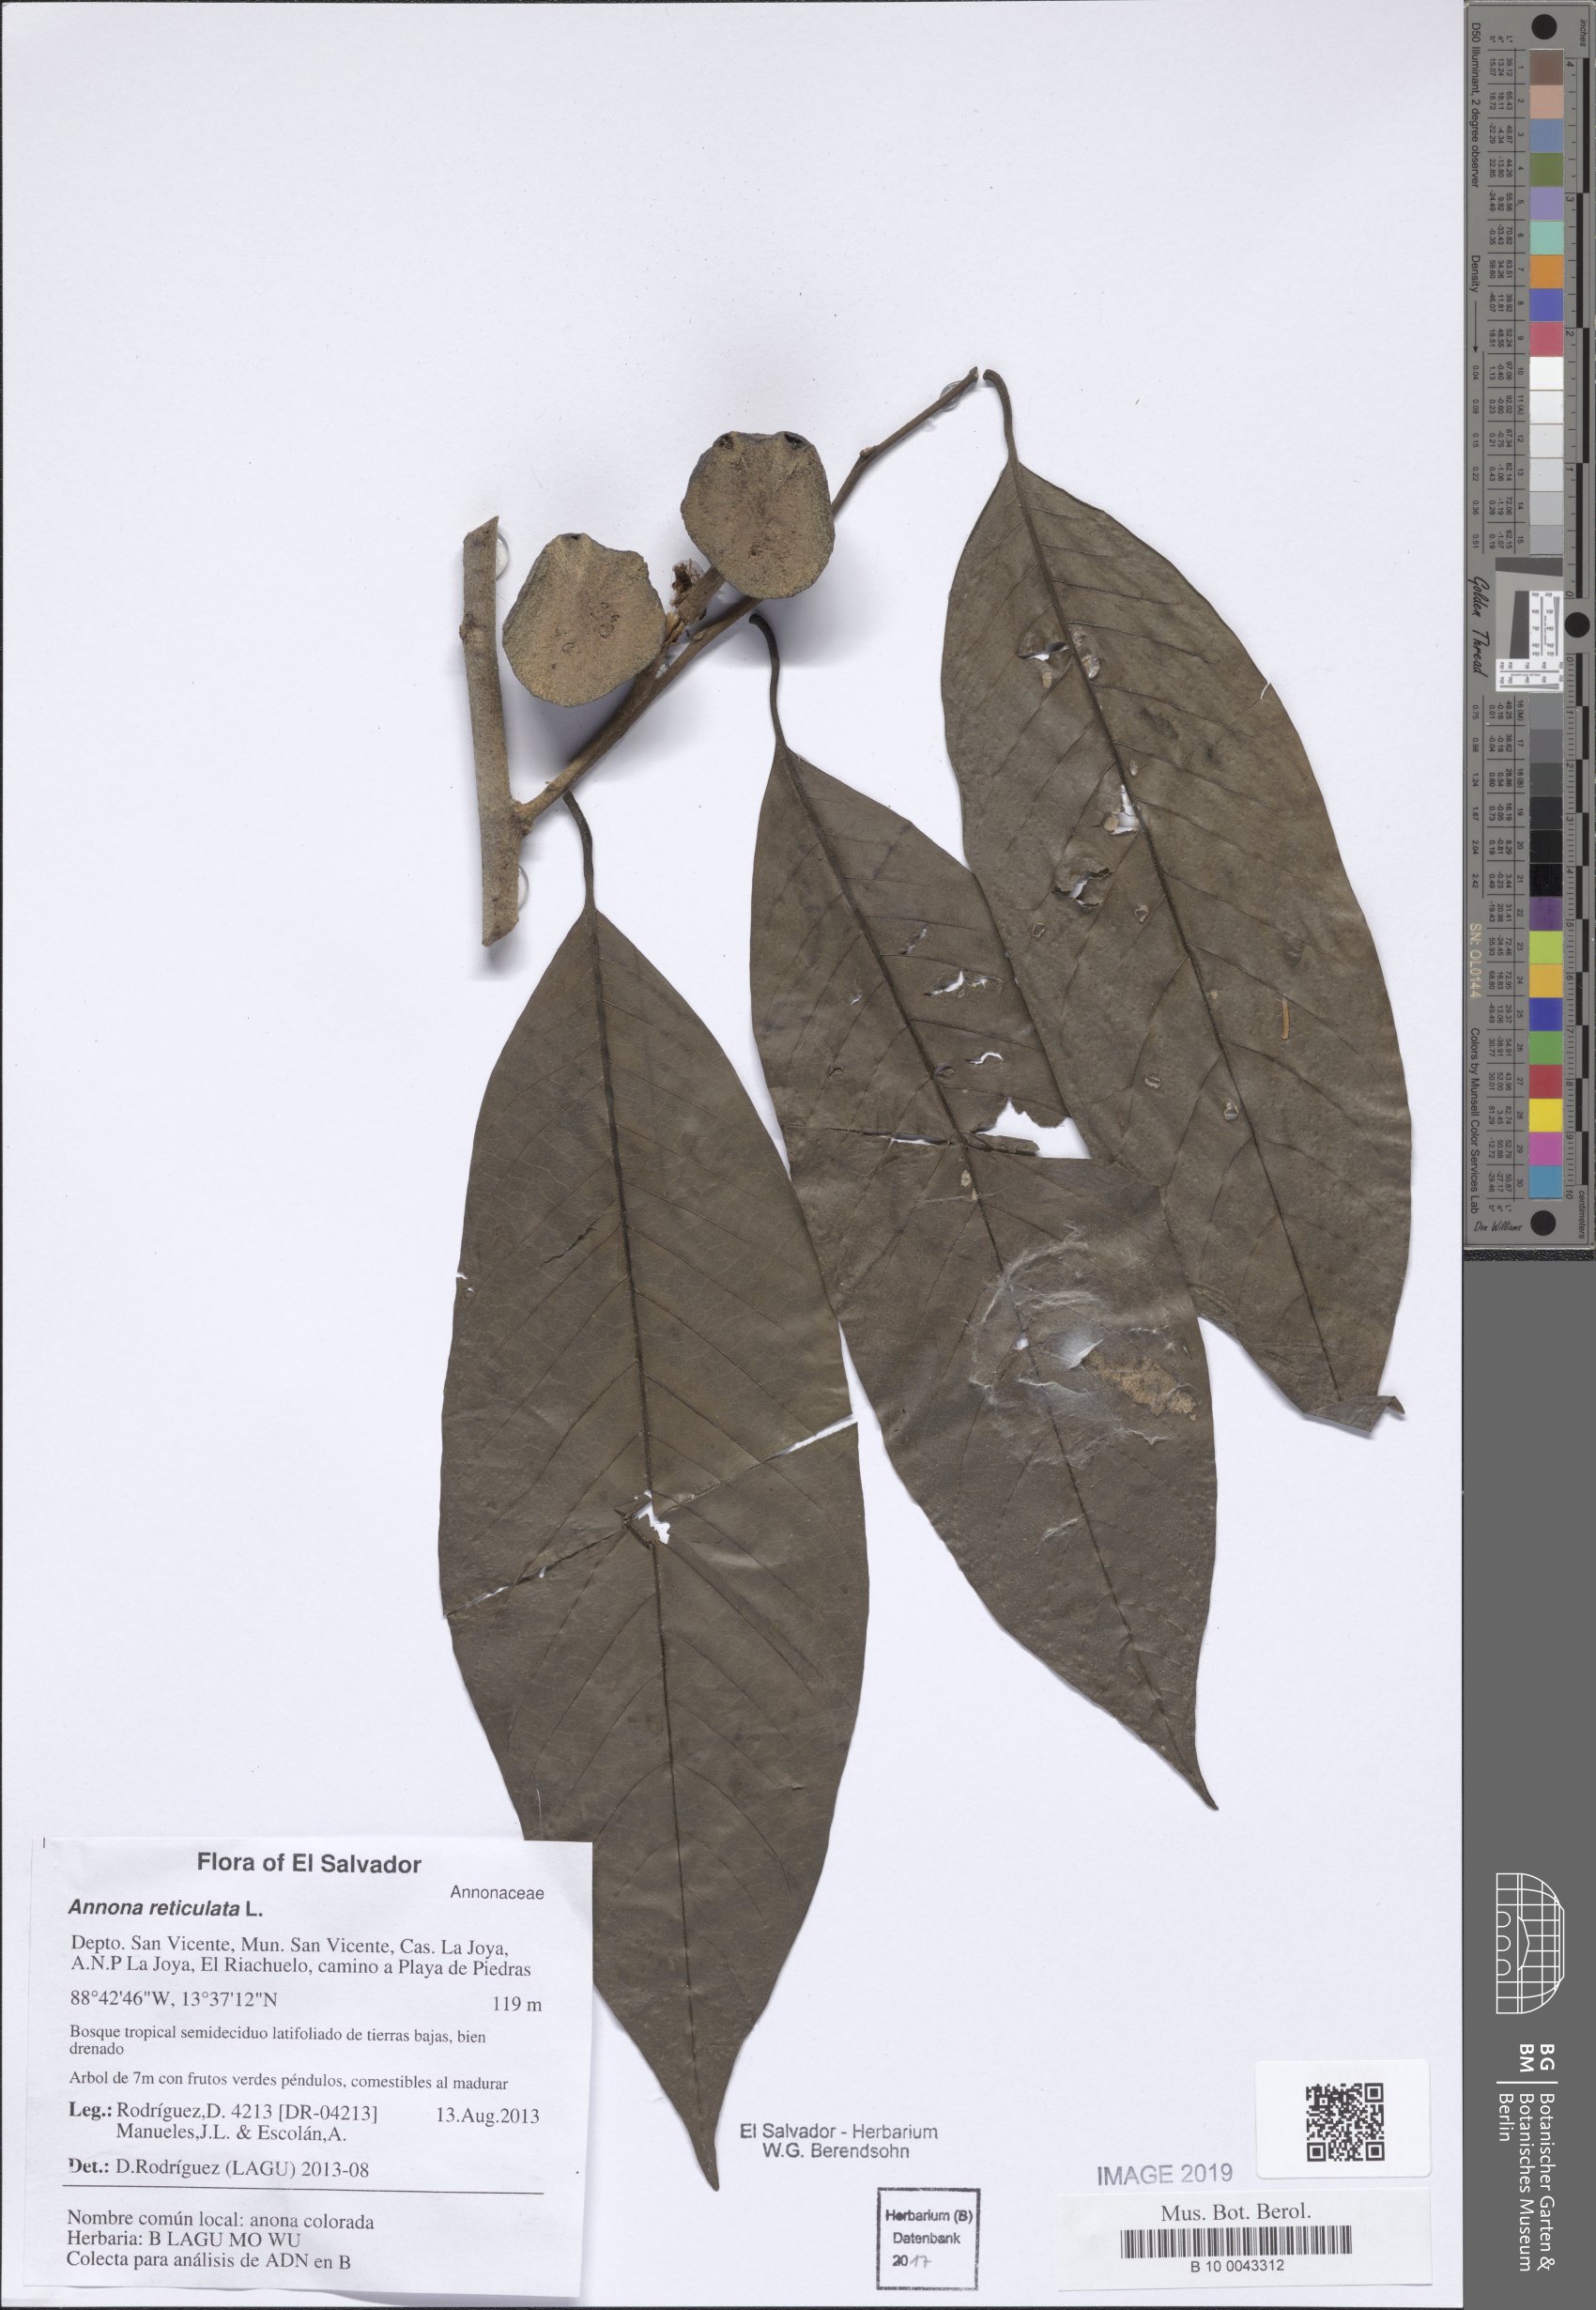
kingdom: Plantae
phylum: Tracheophyta
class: Magnoliopsida
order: Magnoliales
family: Annonaceae
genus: Annona
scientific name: Annona reticulata
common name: Custard apple
